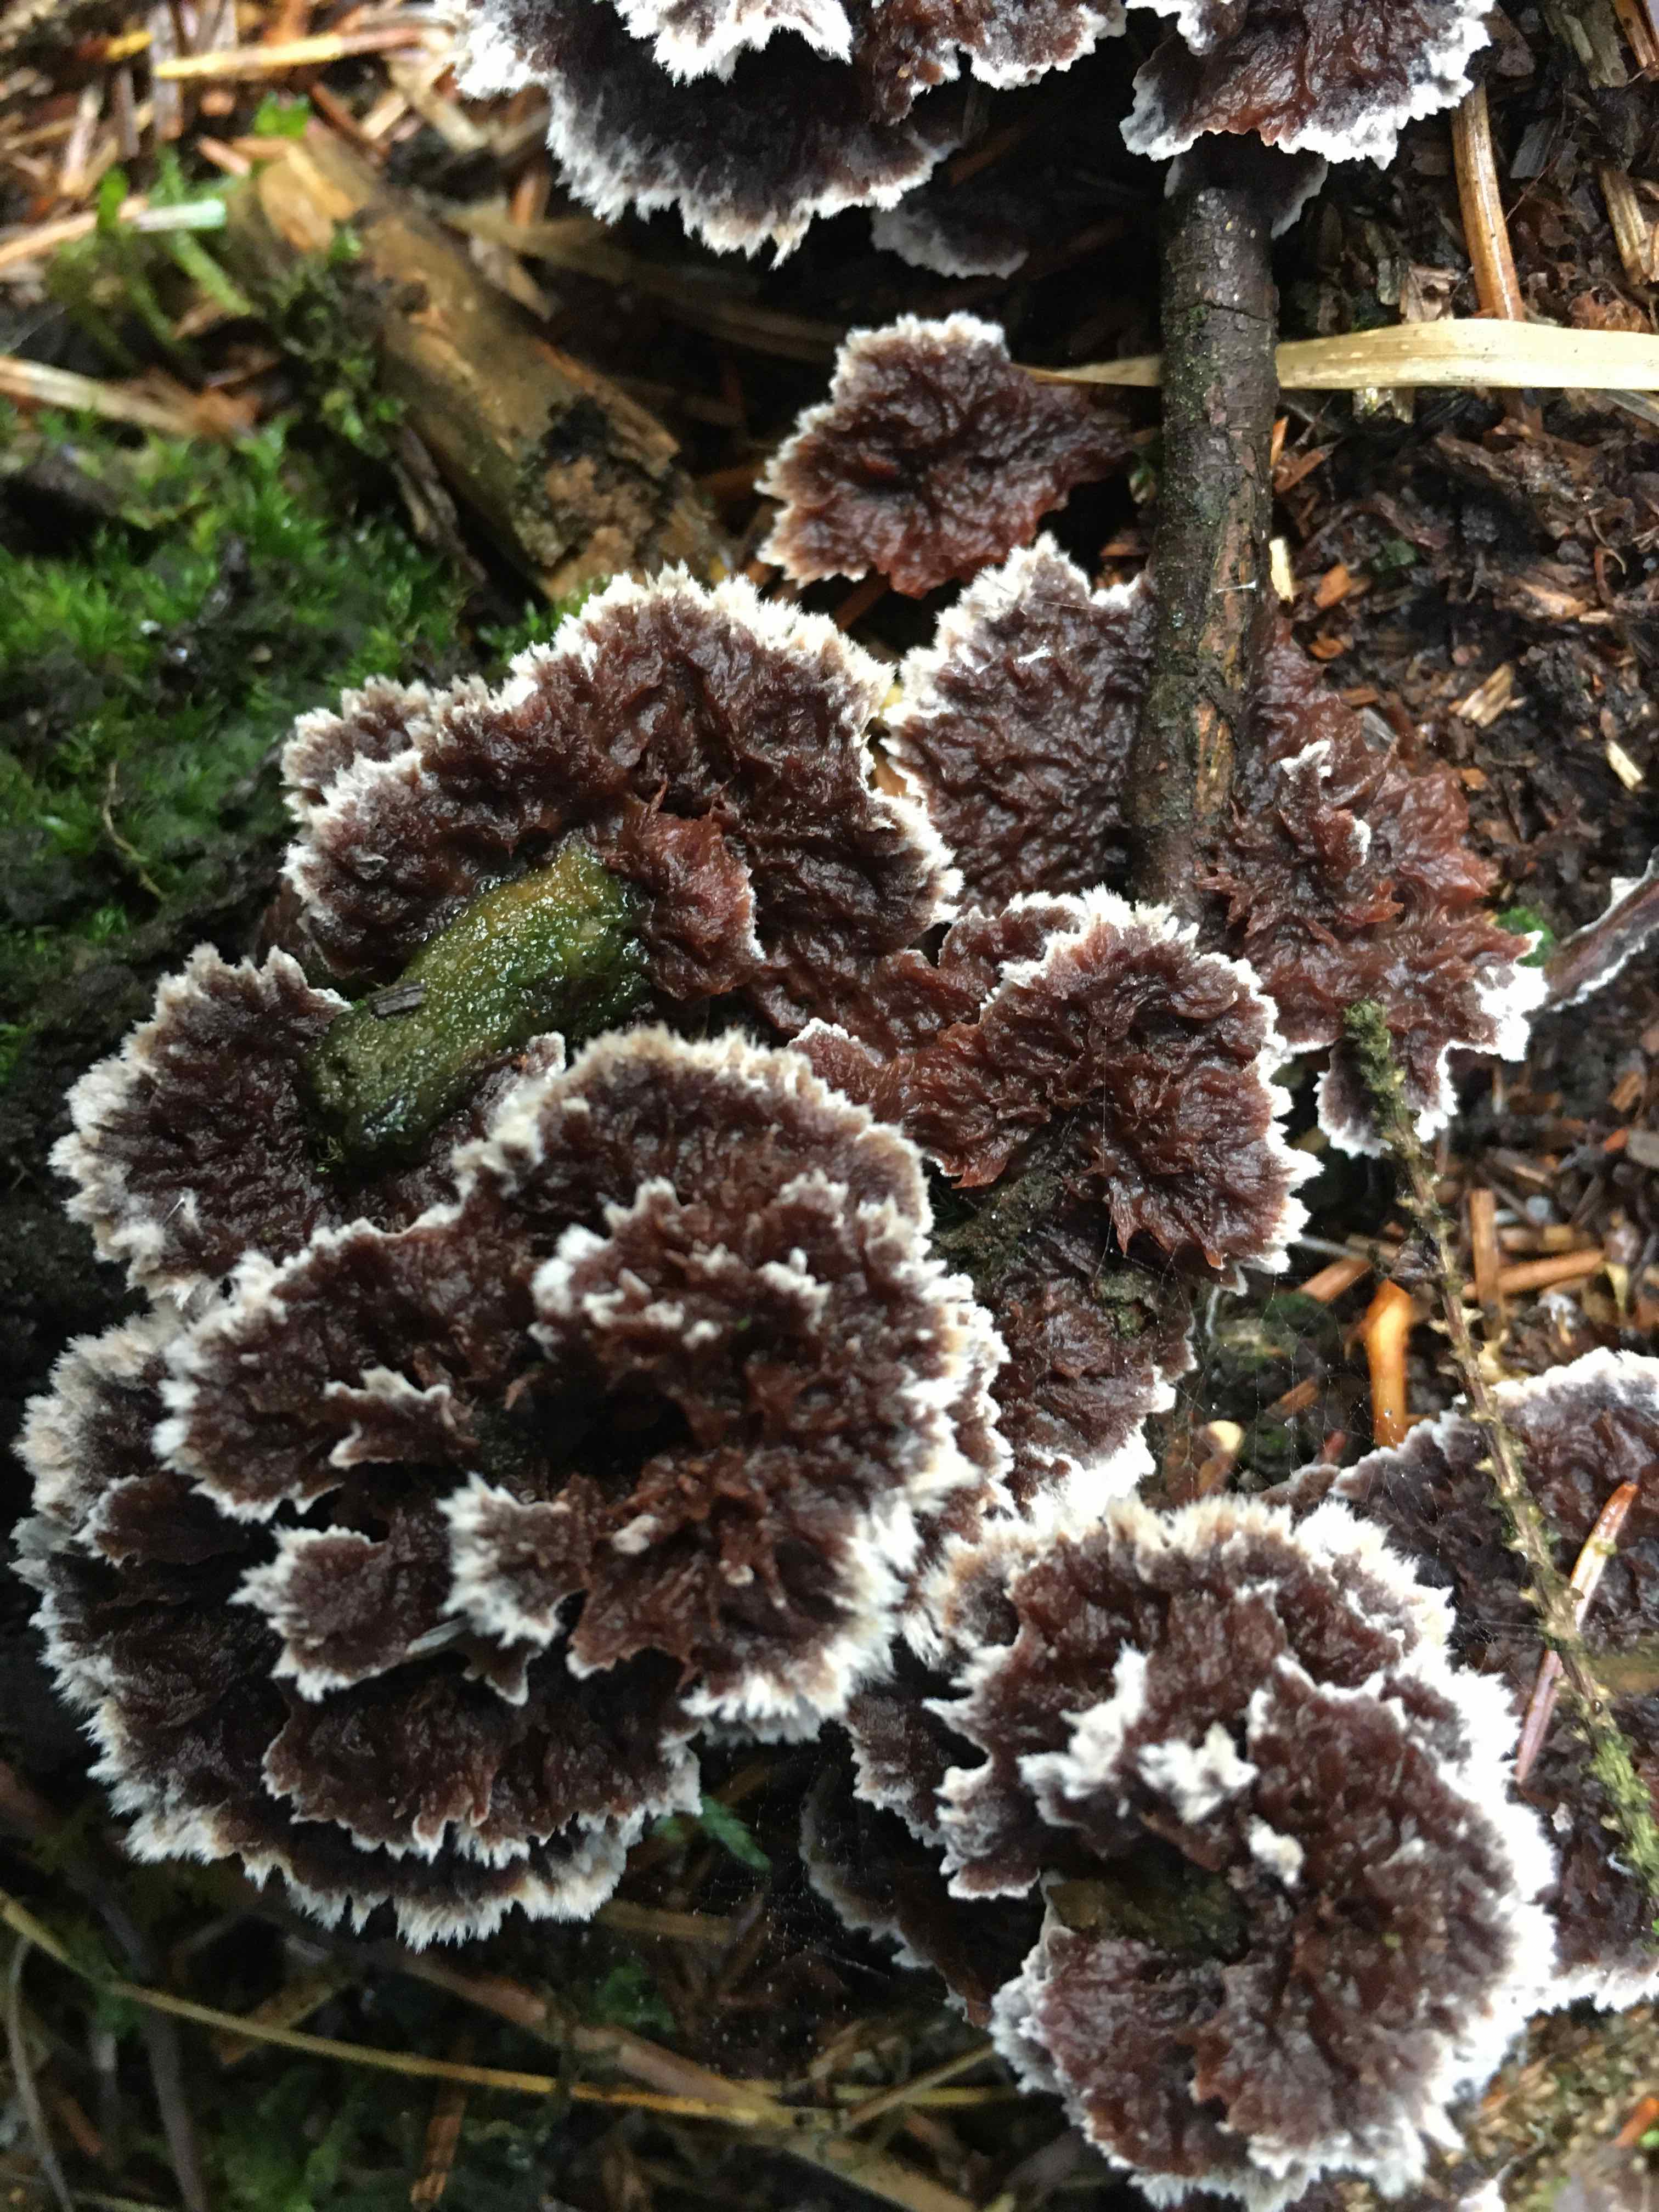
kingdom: Fungi
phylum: Basidiomycota
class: Agaricomycetes
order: Thelephorales
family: Thelephoraceae
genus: Thelephora
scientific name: Thelephora terrestris
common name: fliget frynsesvamp
